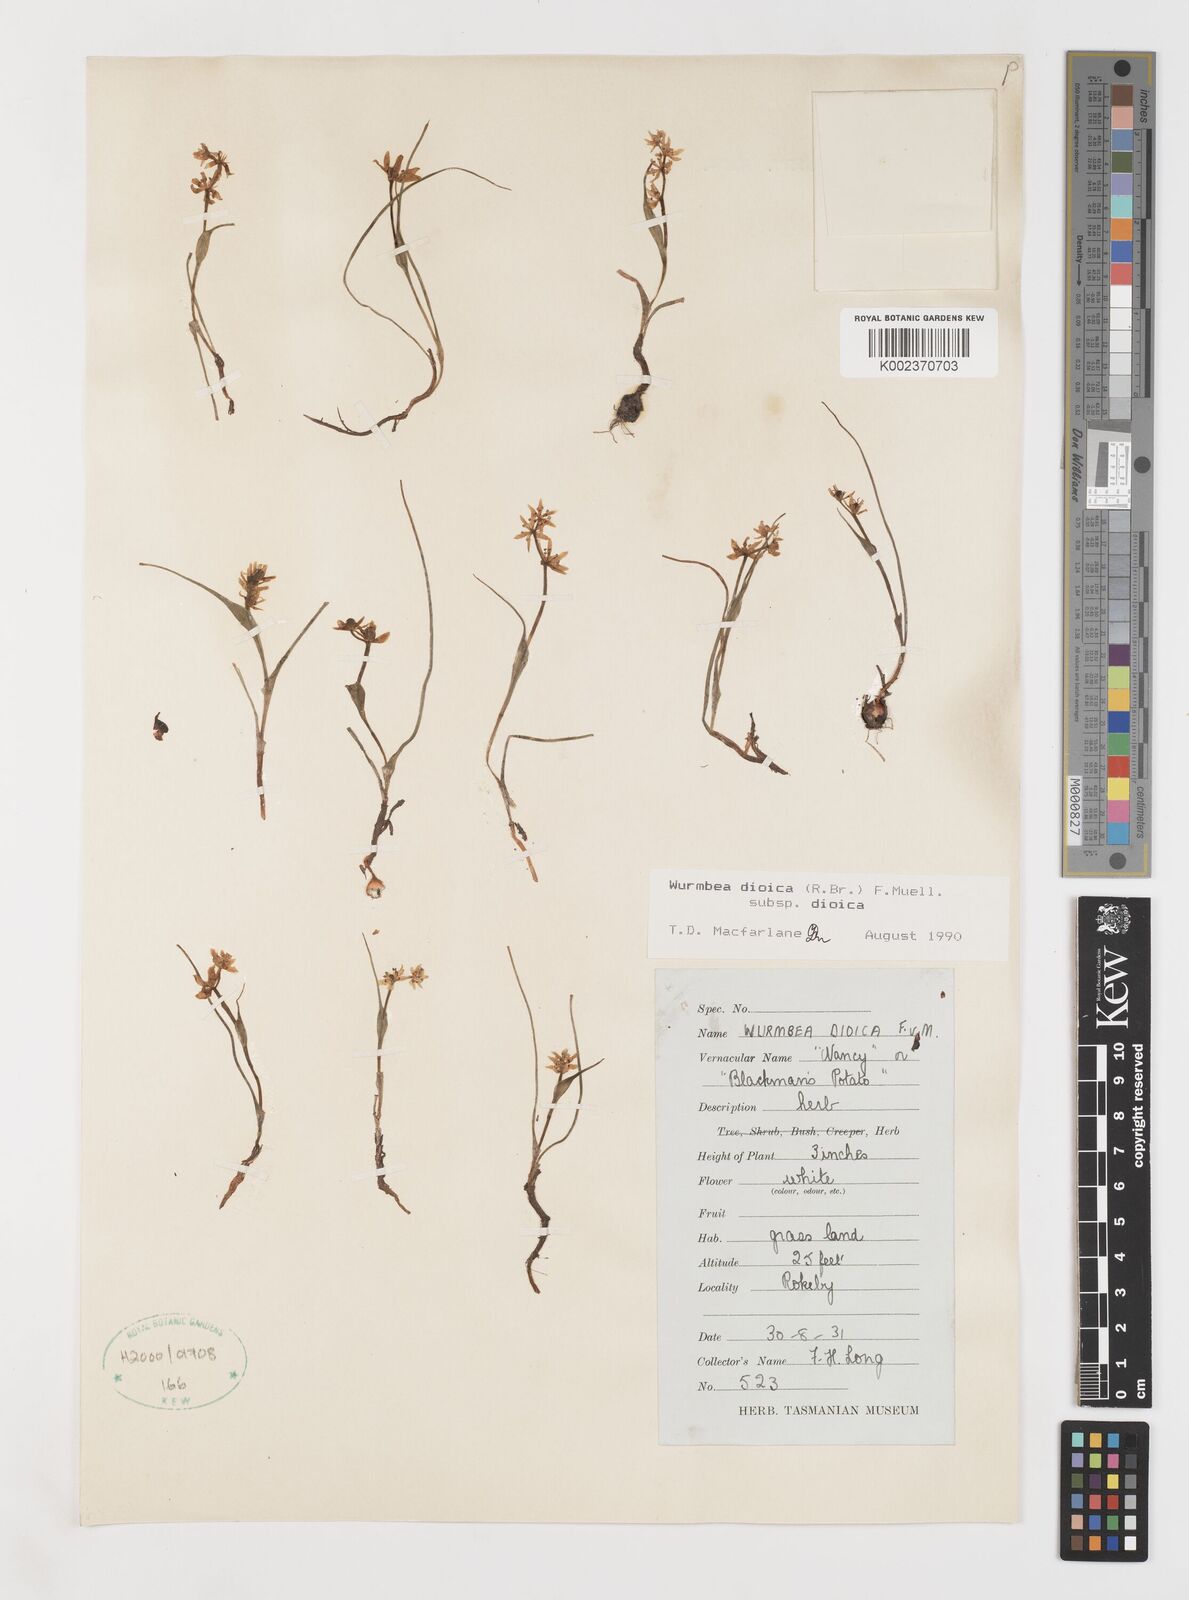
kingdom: Plantae
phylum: Tracheophyta
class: Liliopsida
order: Liliales
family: Colchicaceae
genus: Wurmbea
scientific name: Wurmbea dioica
